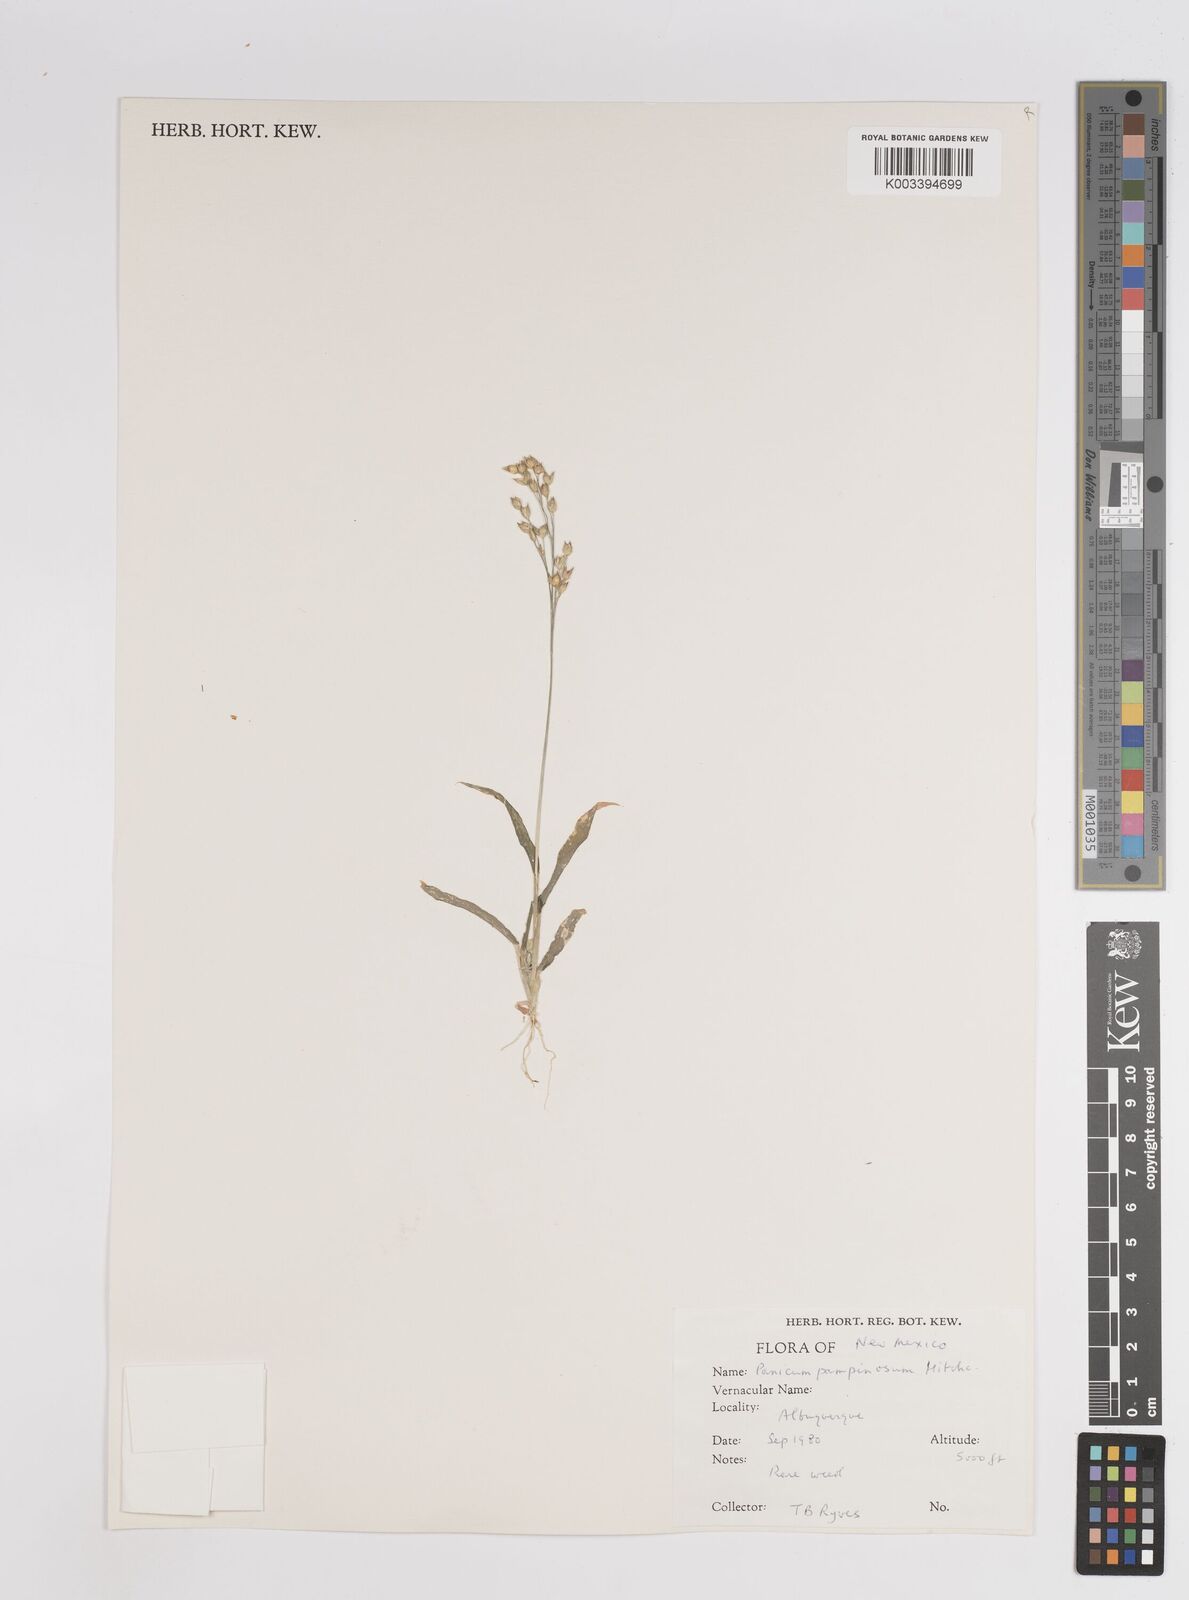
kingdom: Plantae
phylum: Tracheophyta
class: Liliopsida
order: Poales
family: Poaceae
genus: Panicum
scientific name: Panicum miliaceum
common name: Common millet
